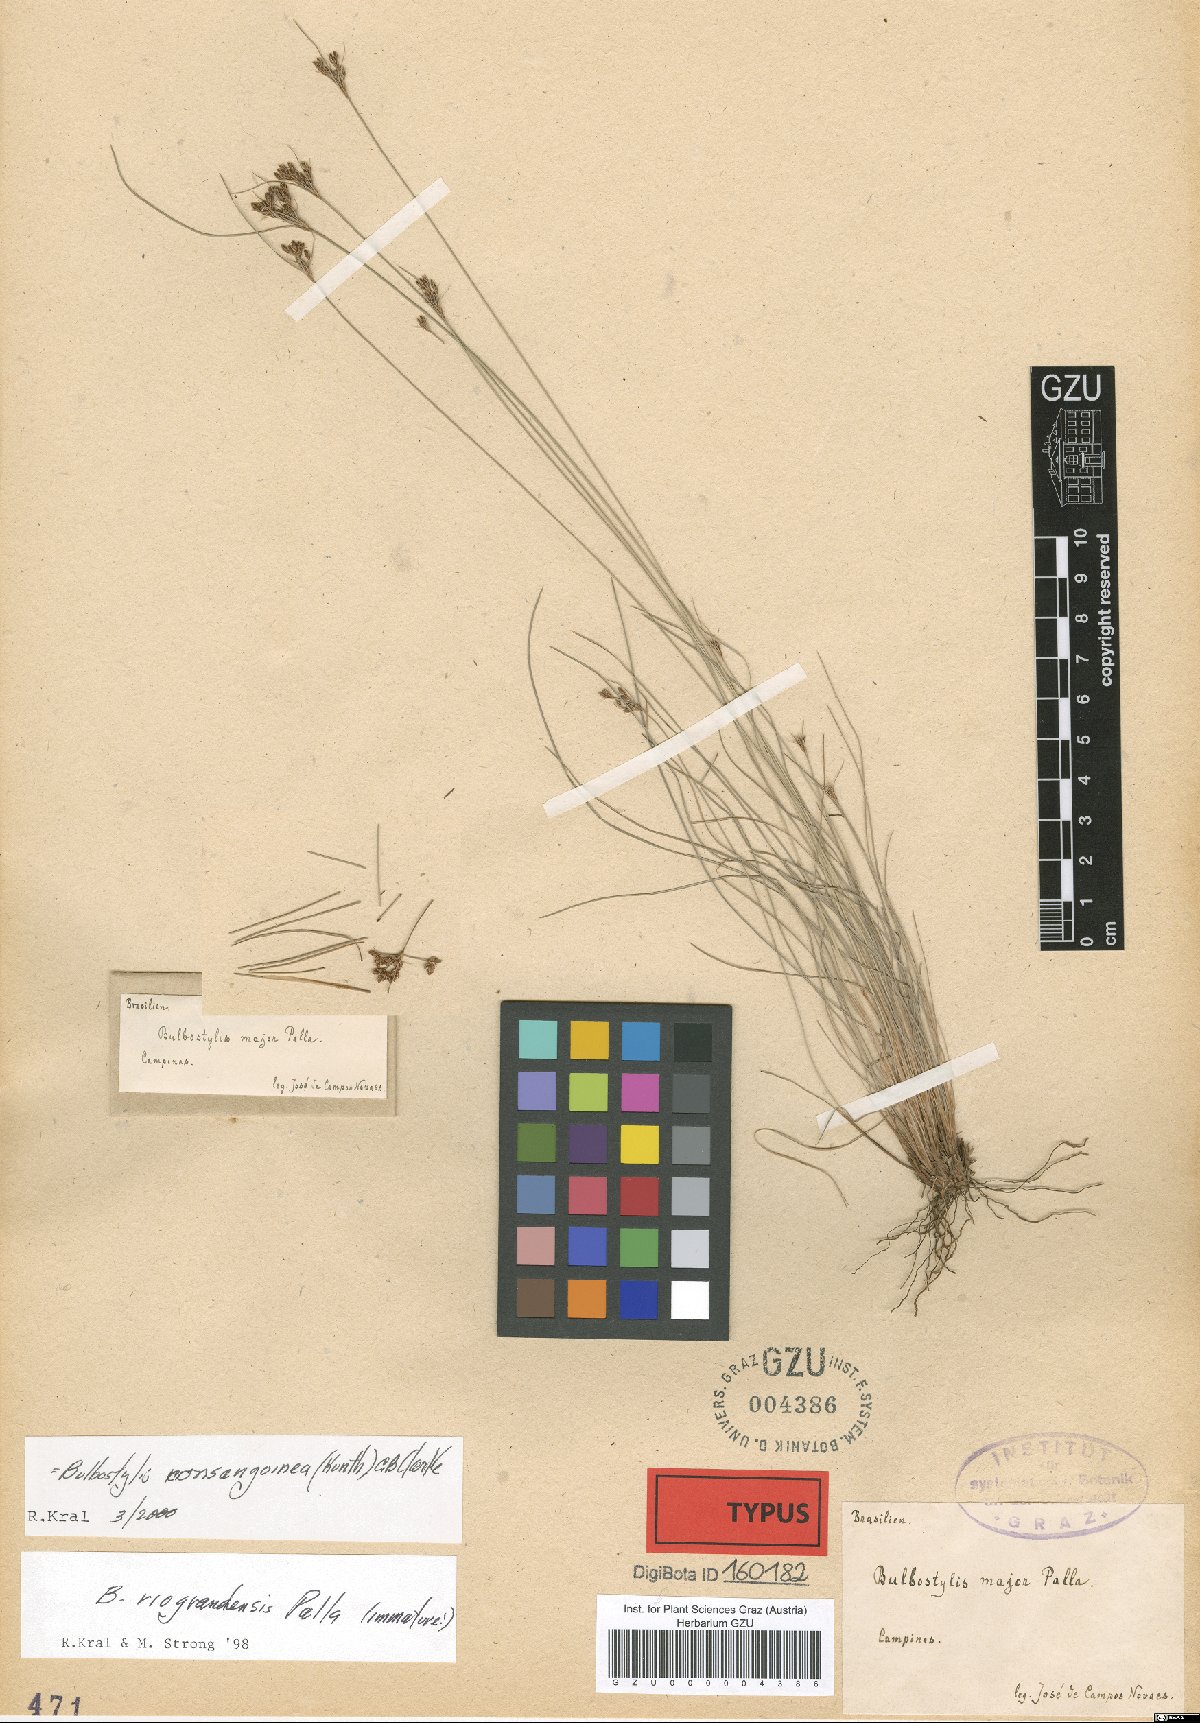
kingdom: Plantae
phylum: Tracheophyta
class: Liliopsida
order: Poales
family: Cyperaceae
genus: Bulbostylis
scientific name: Bulbostylis major
